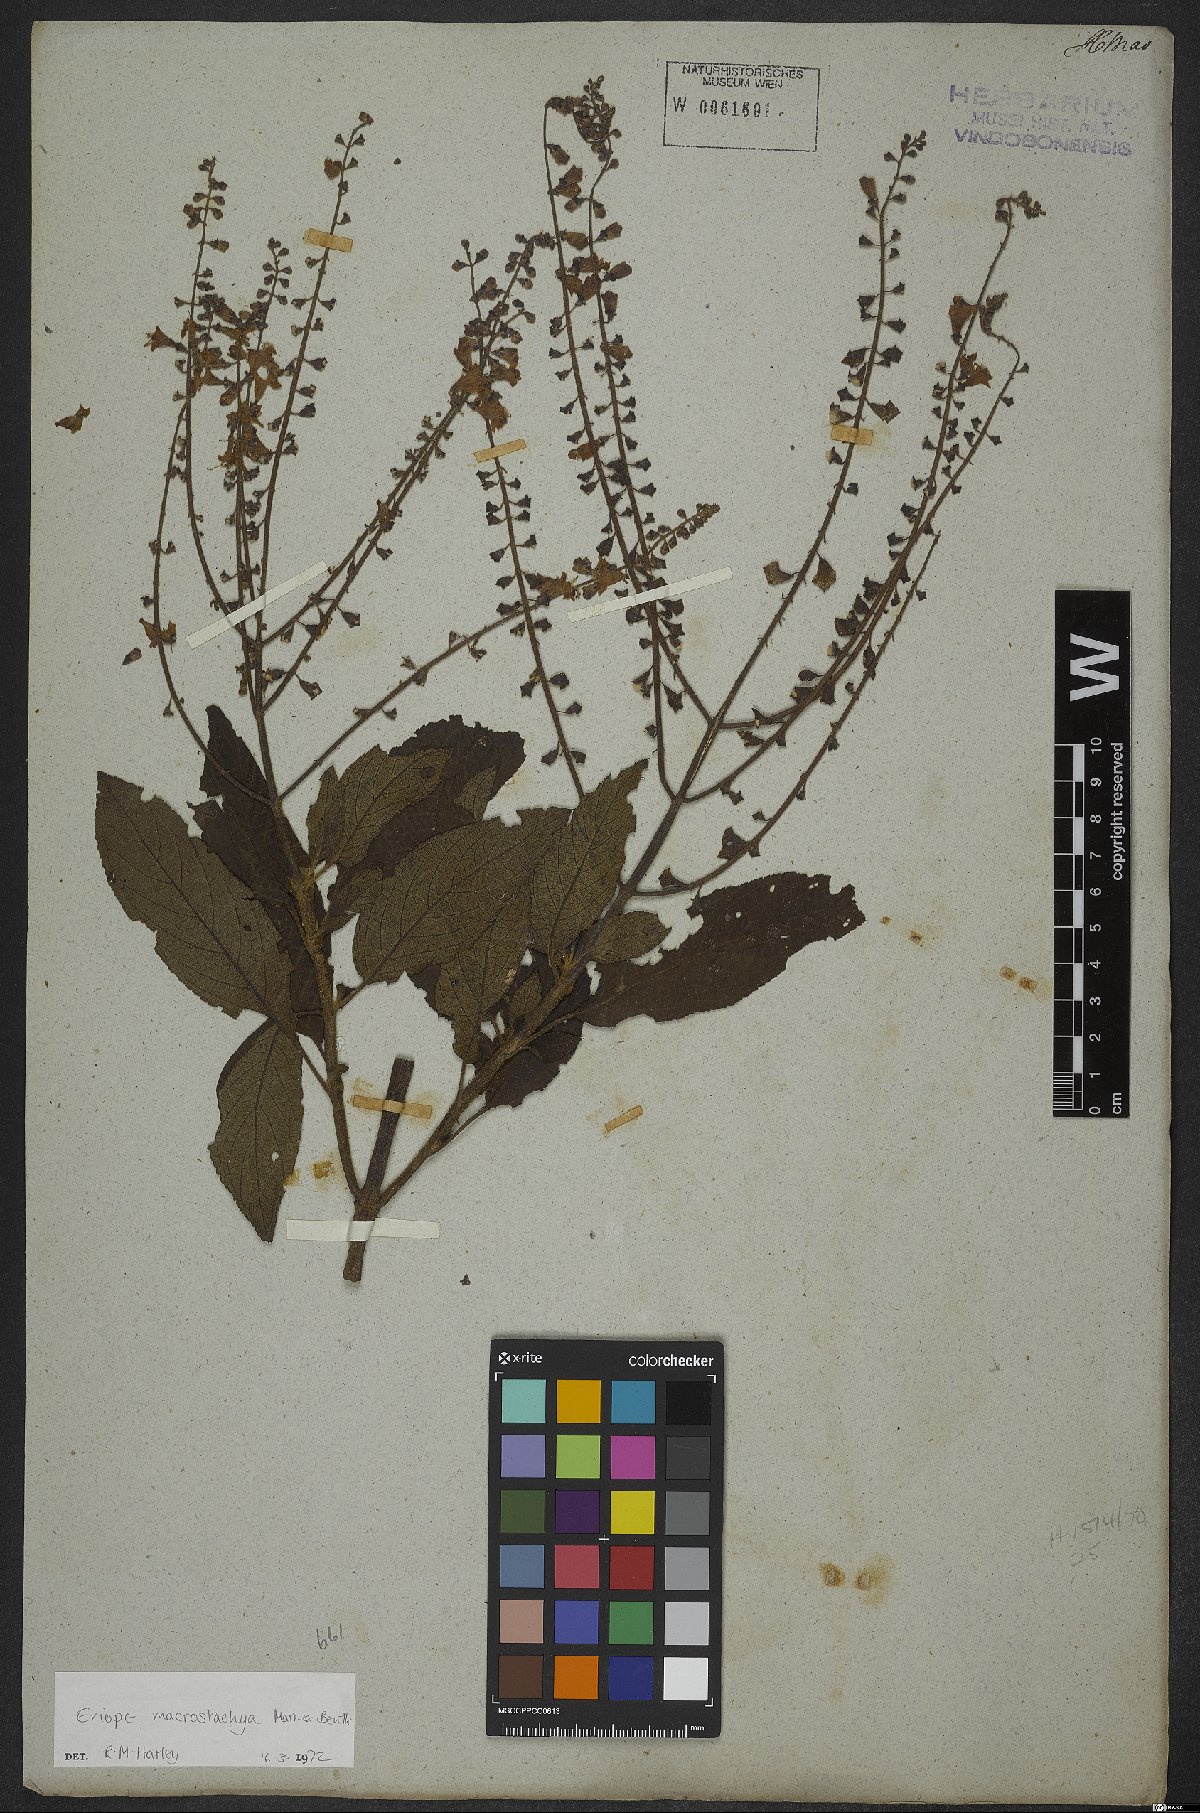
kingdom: Plantae
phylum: Tracheophyta
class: Magnoliopsida
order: Lamiales
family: Lamiaceae
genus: Eriope
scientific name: Eriope macrostachya
